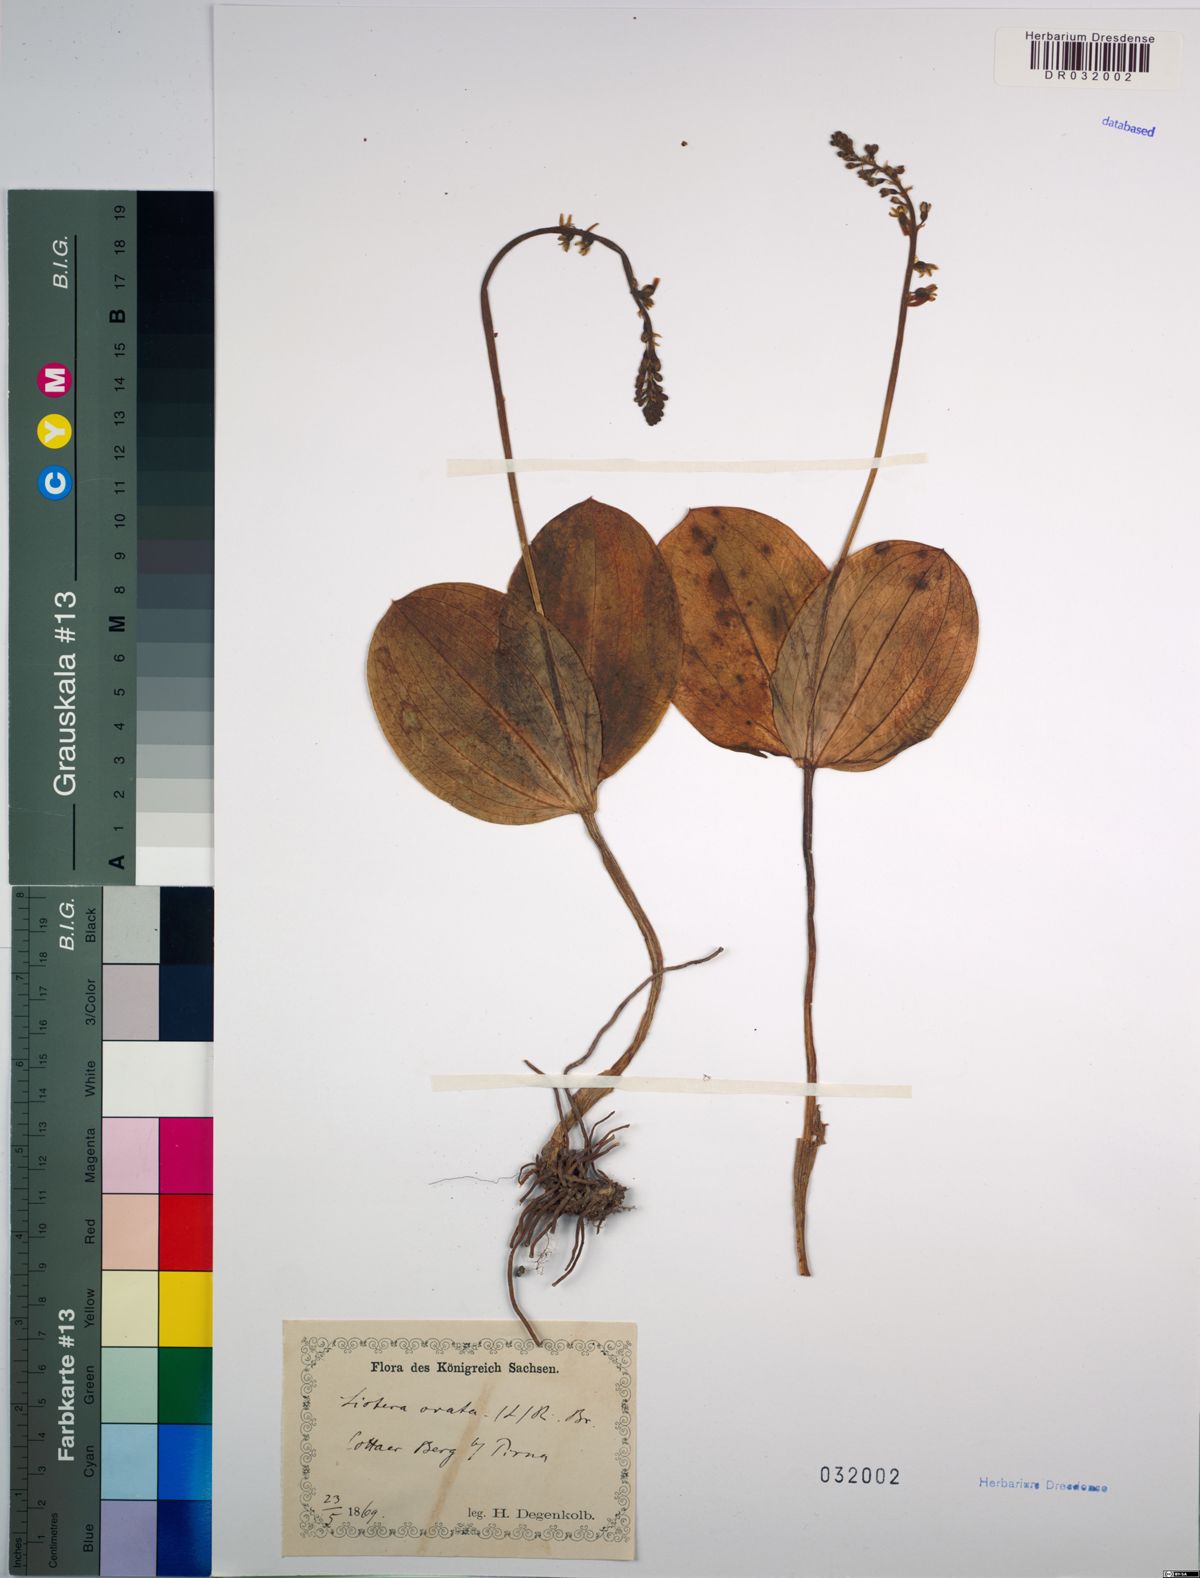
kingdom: Plantae
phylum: Tracheophyta
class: Liliopsida
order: Asparagales
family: Orchidaceae
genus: Neottia
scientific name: Neottia ovata
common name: Common twayblade
